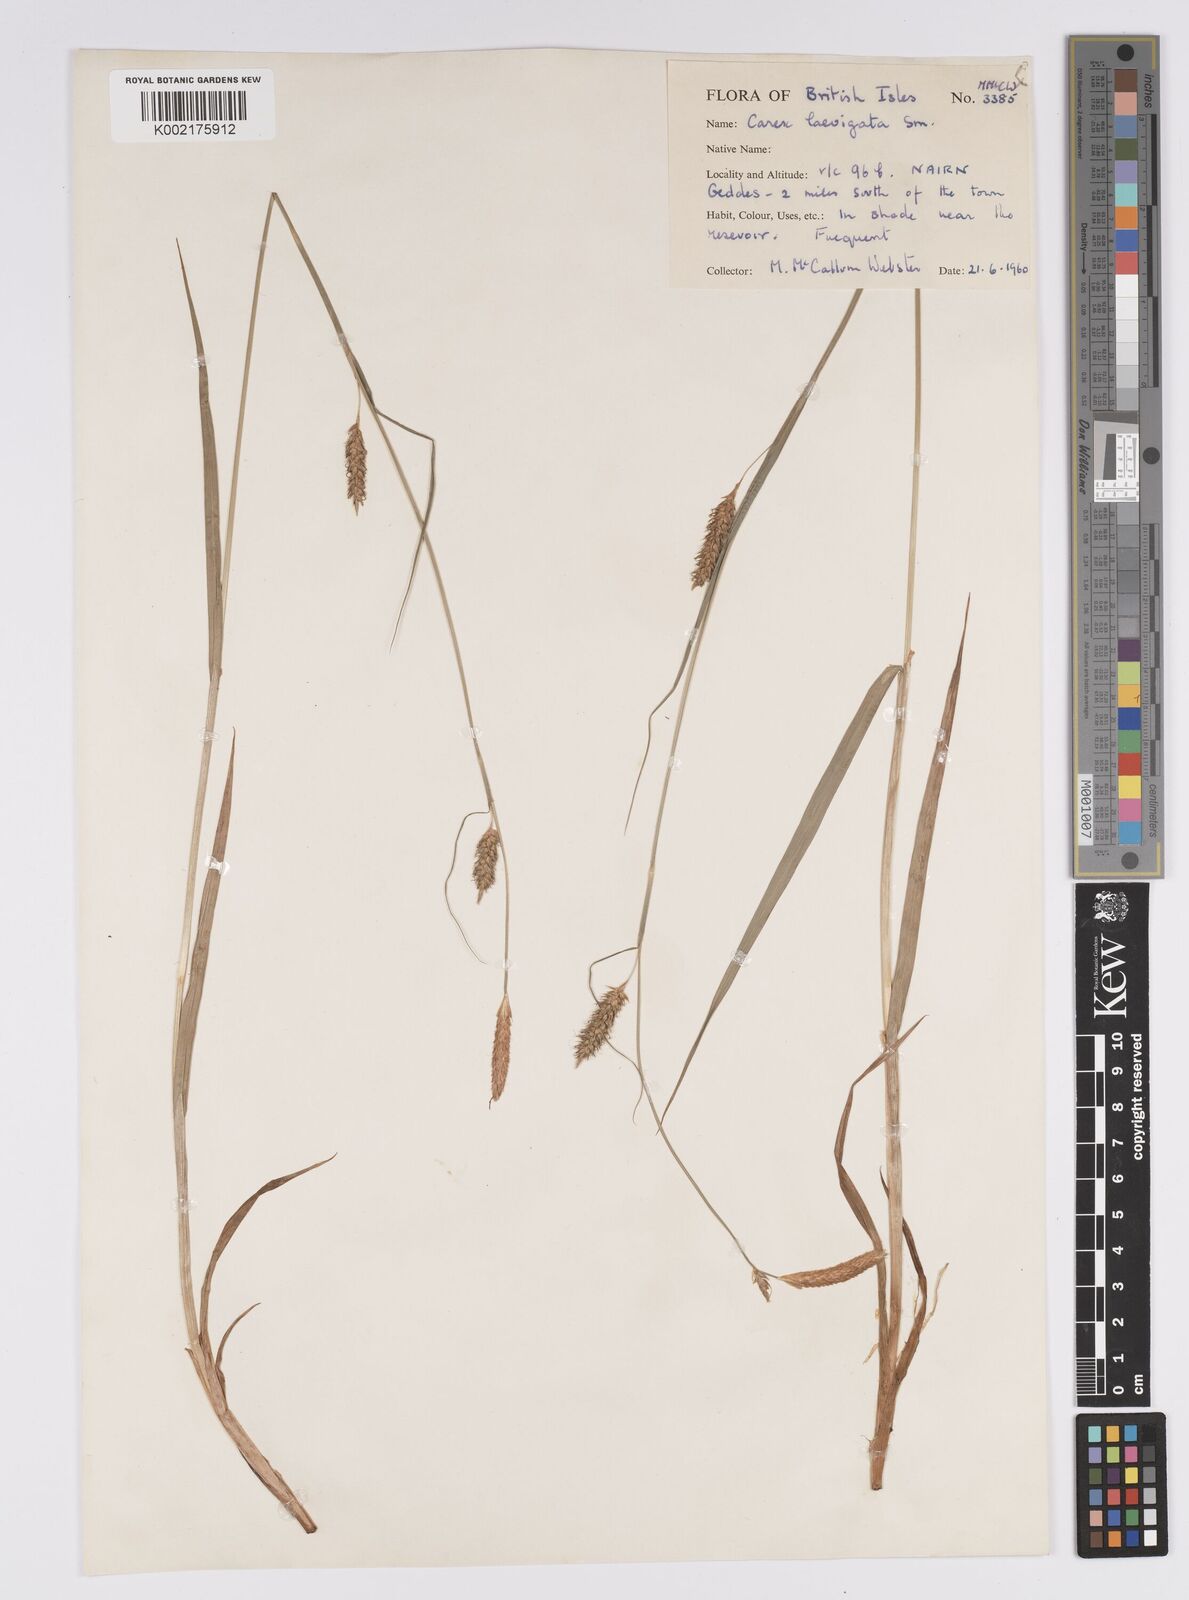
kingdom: Plantae
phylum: Tracheophyta
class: Liliopsida
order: Poales
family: Cyperaceae
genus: Carex
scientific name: Carex laevigata
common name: Smooth-stalked sedge
